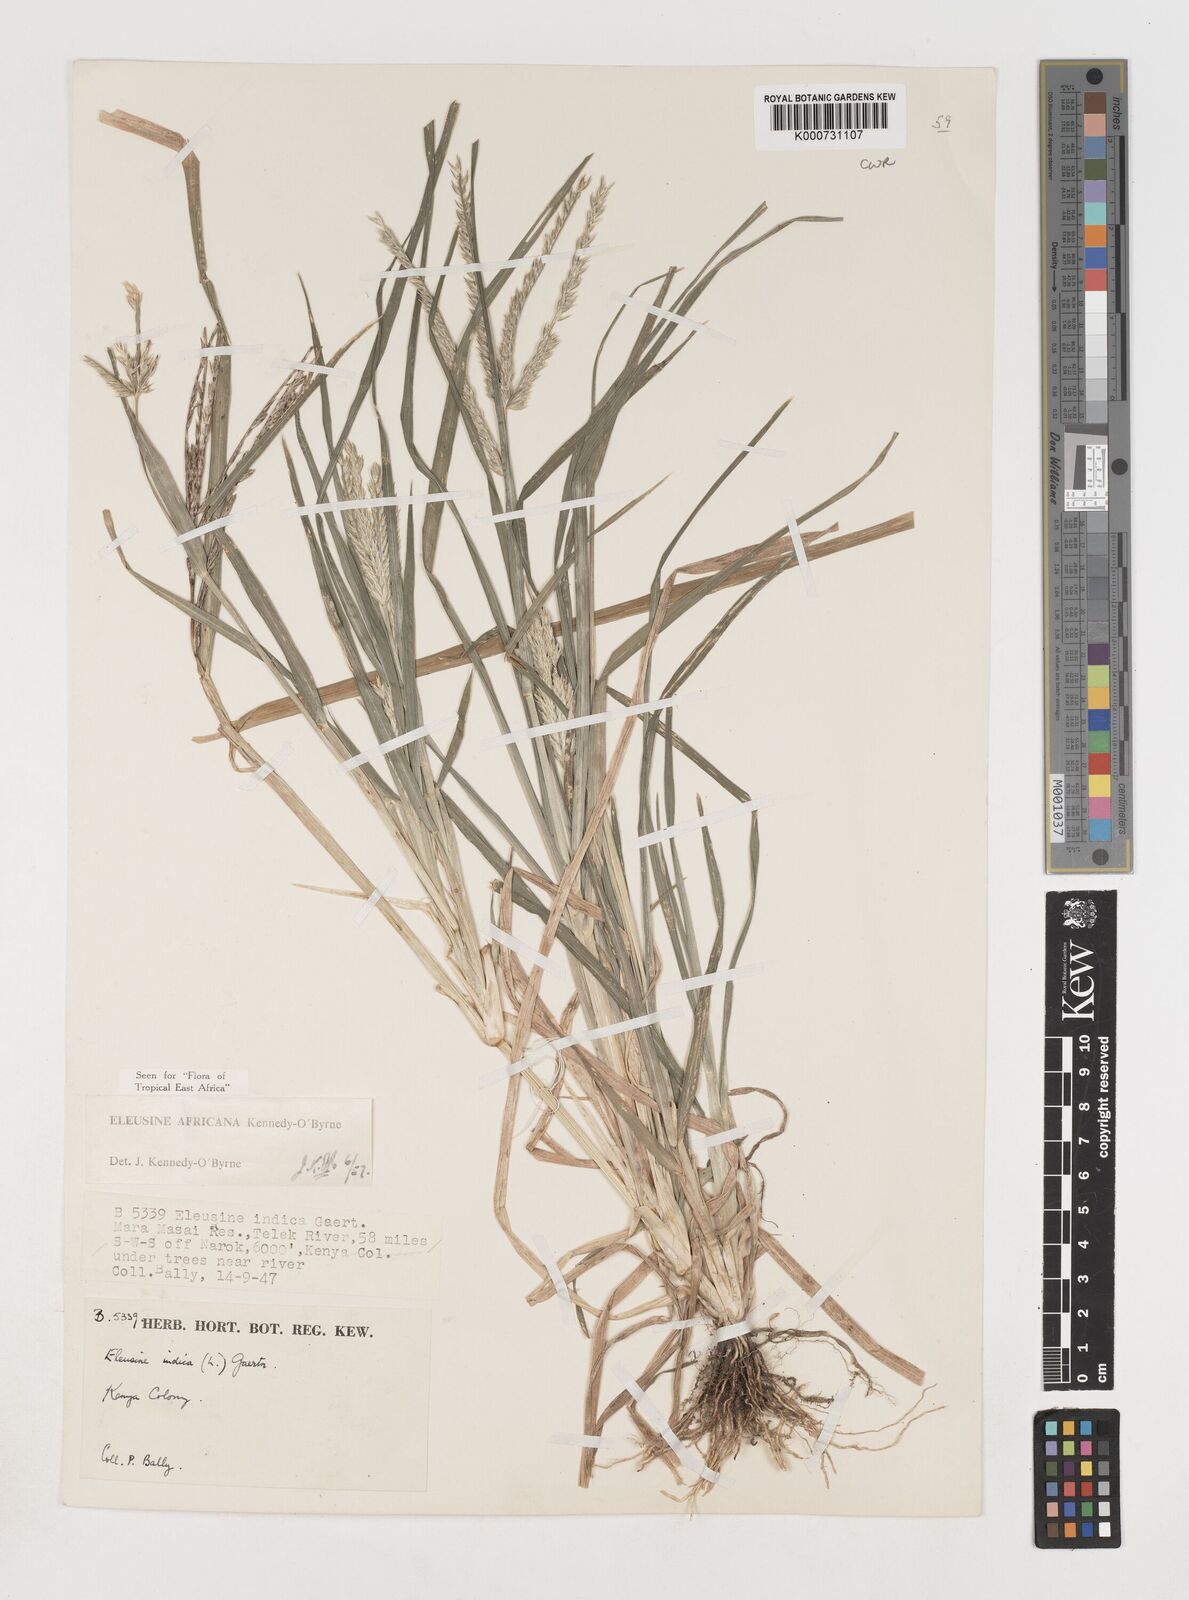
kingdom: Plantae
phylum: Tracheophyta
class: Liliopsida
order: Poales
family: Poaceae
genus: Eleusine
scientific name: Eleusine africana
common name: Wild african finger millet
